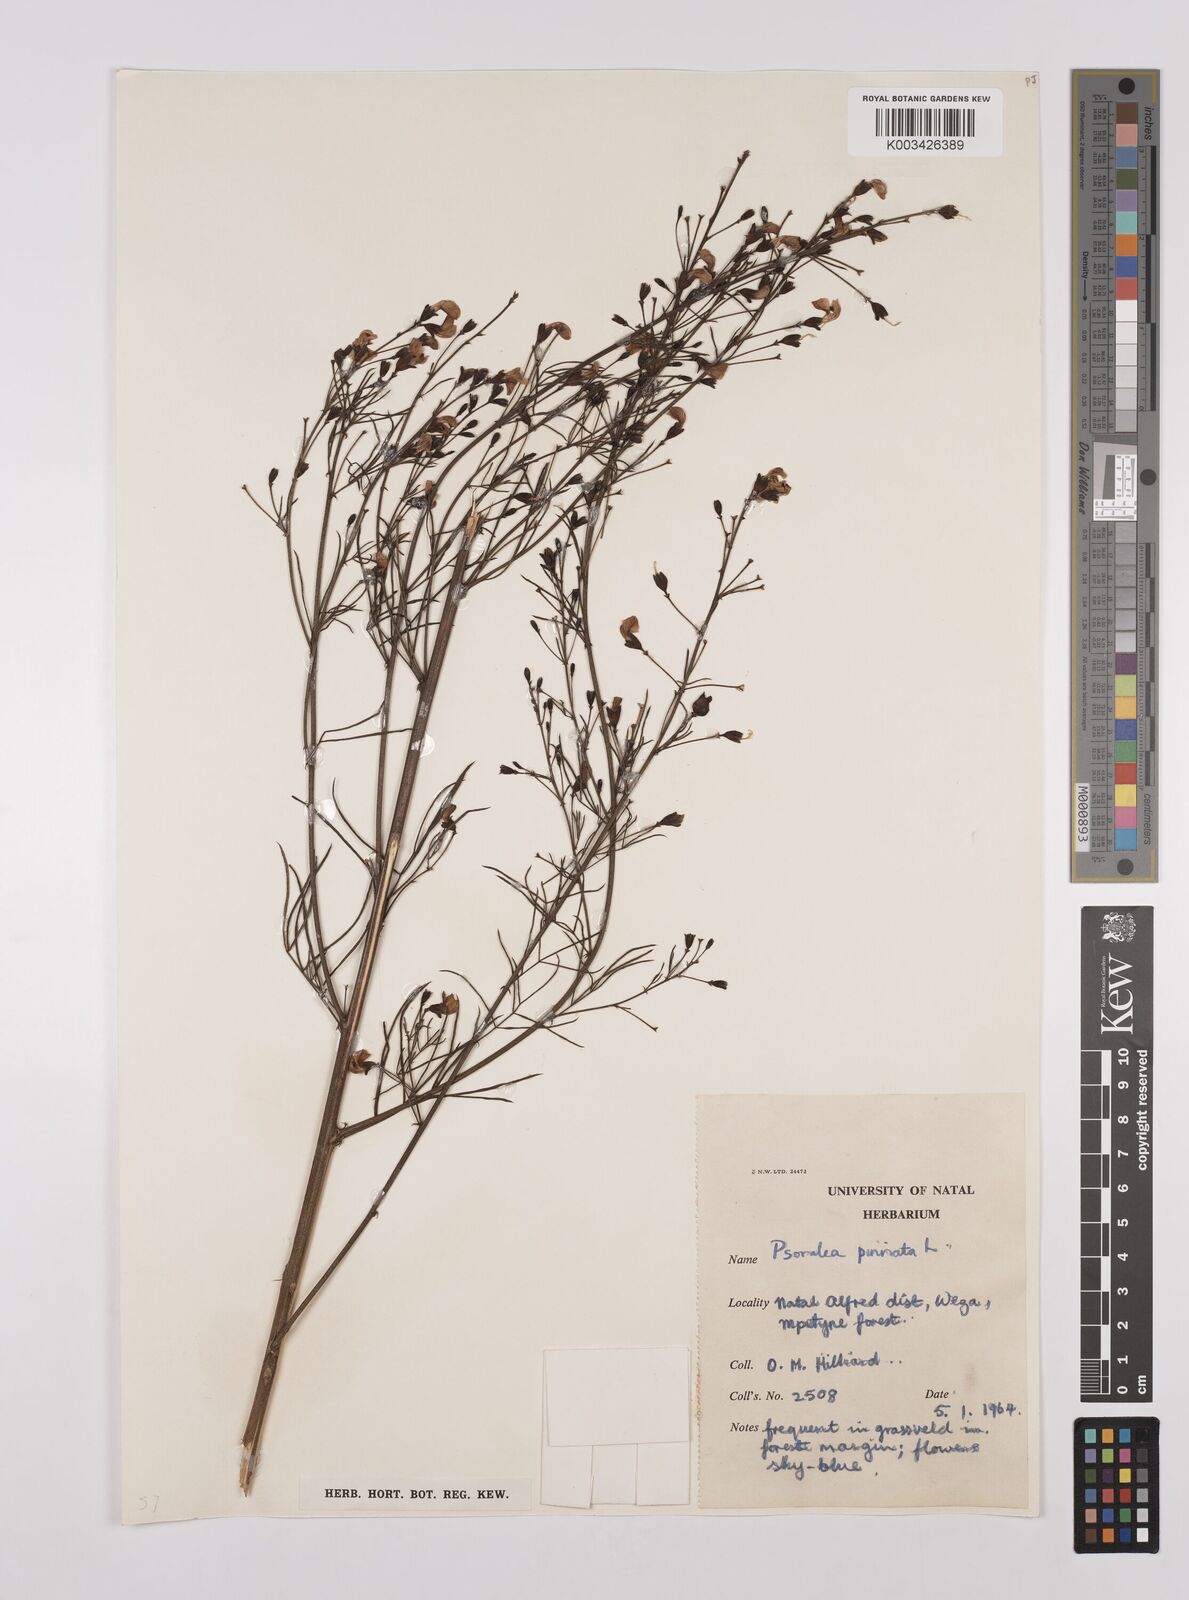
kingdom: Plantae
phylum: Tracheophyta
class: Magnoliopsida
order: Fabales
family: Fabaceae
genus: Psoralea
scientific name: Psoralea rhizotoma
